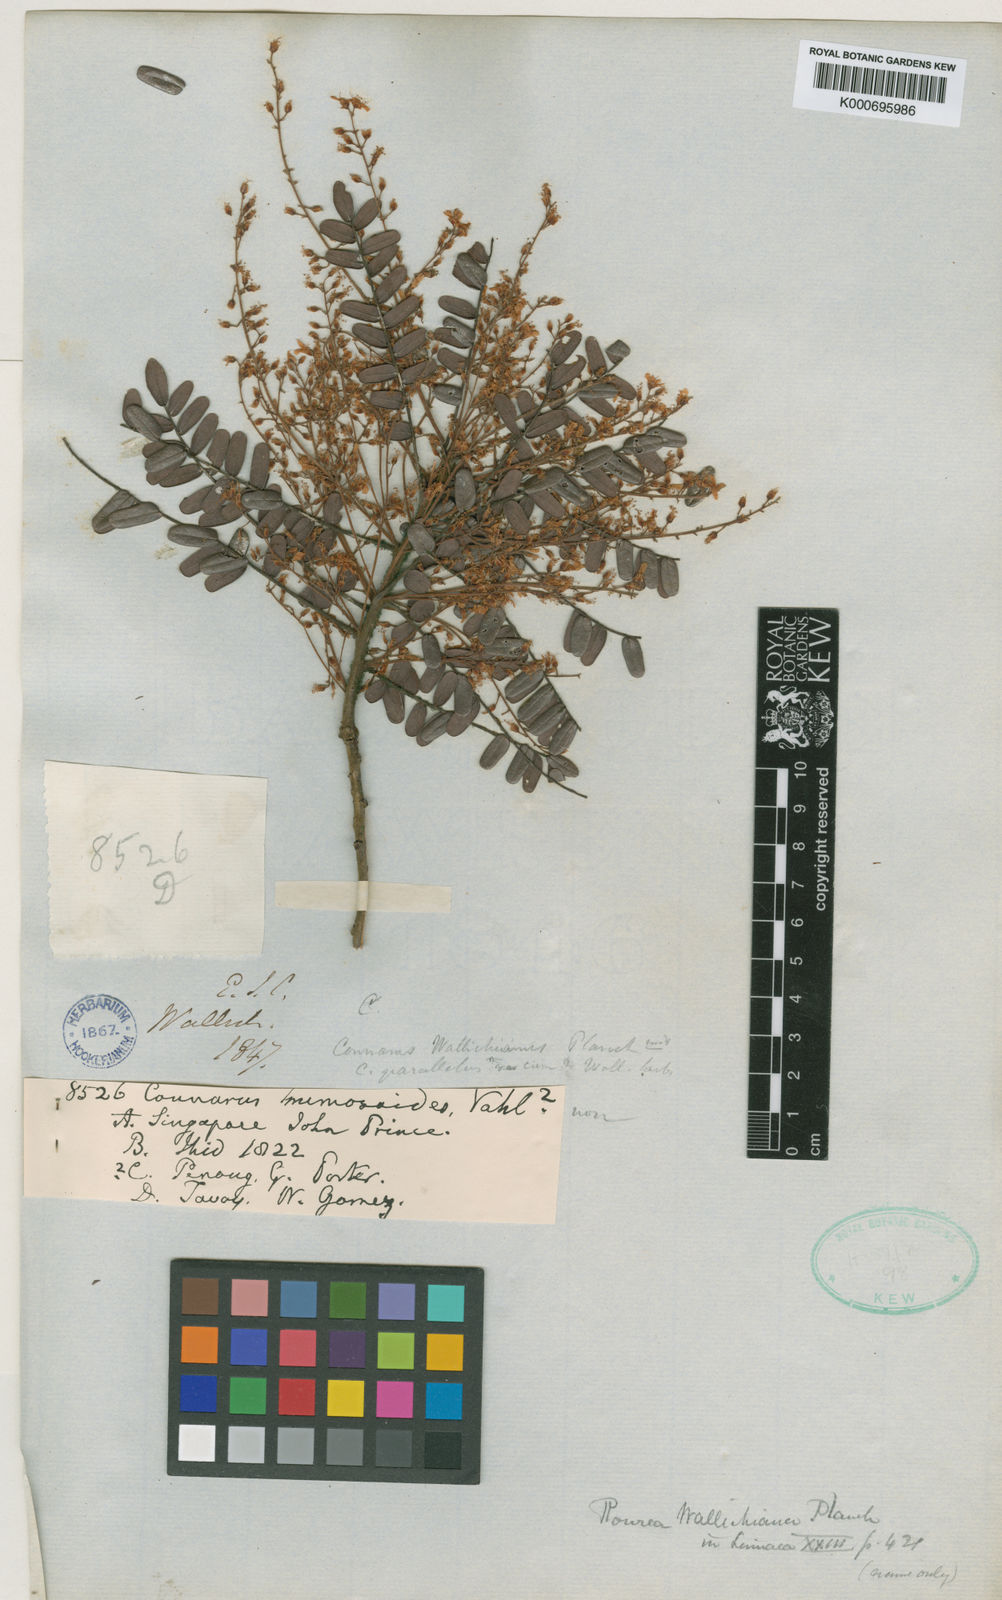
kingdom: Plantae
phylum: Tracheophyta
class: Magnoliopsida
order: Oxalidales
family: Connaraceae
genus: Rourea
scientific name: Rourea mimosoides
